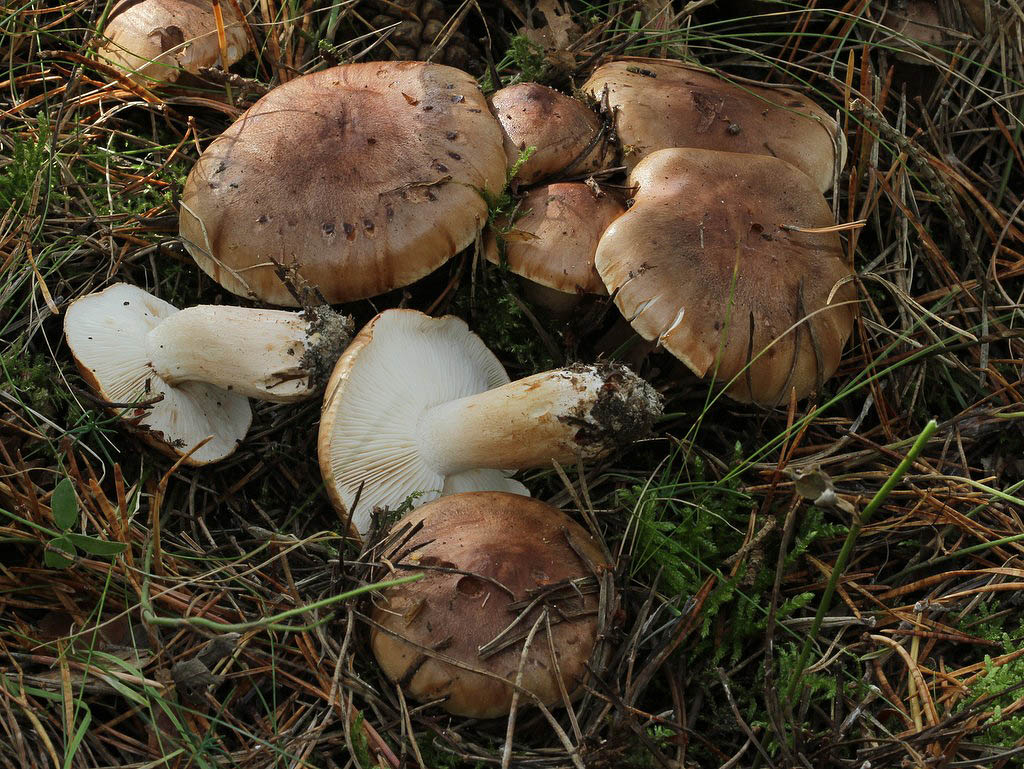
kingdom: Fungi
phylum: Basidiomycota
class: Agaricomycetes
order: Agaricales
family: Tricholomataceae
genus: Tricholoma
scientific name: Tricholoma pessundatum
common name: dråbeplettet ridderhat
